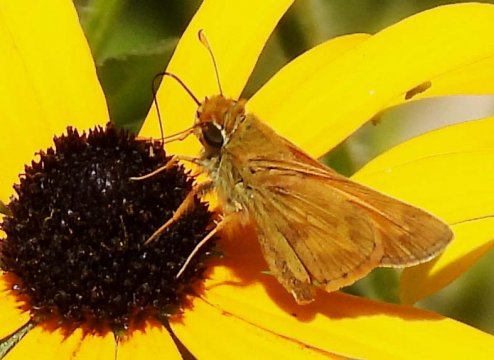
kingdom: Animalia
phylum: Arthropoda
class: Insecta
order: Lepidoptera
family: Hesperiidae
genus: Atalopedes
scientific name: Atalopedes campestris
